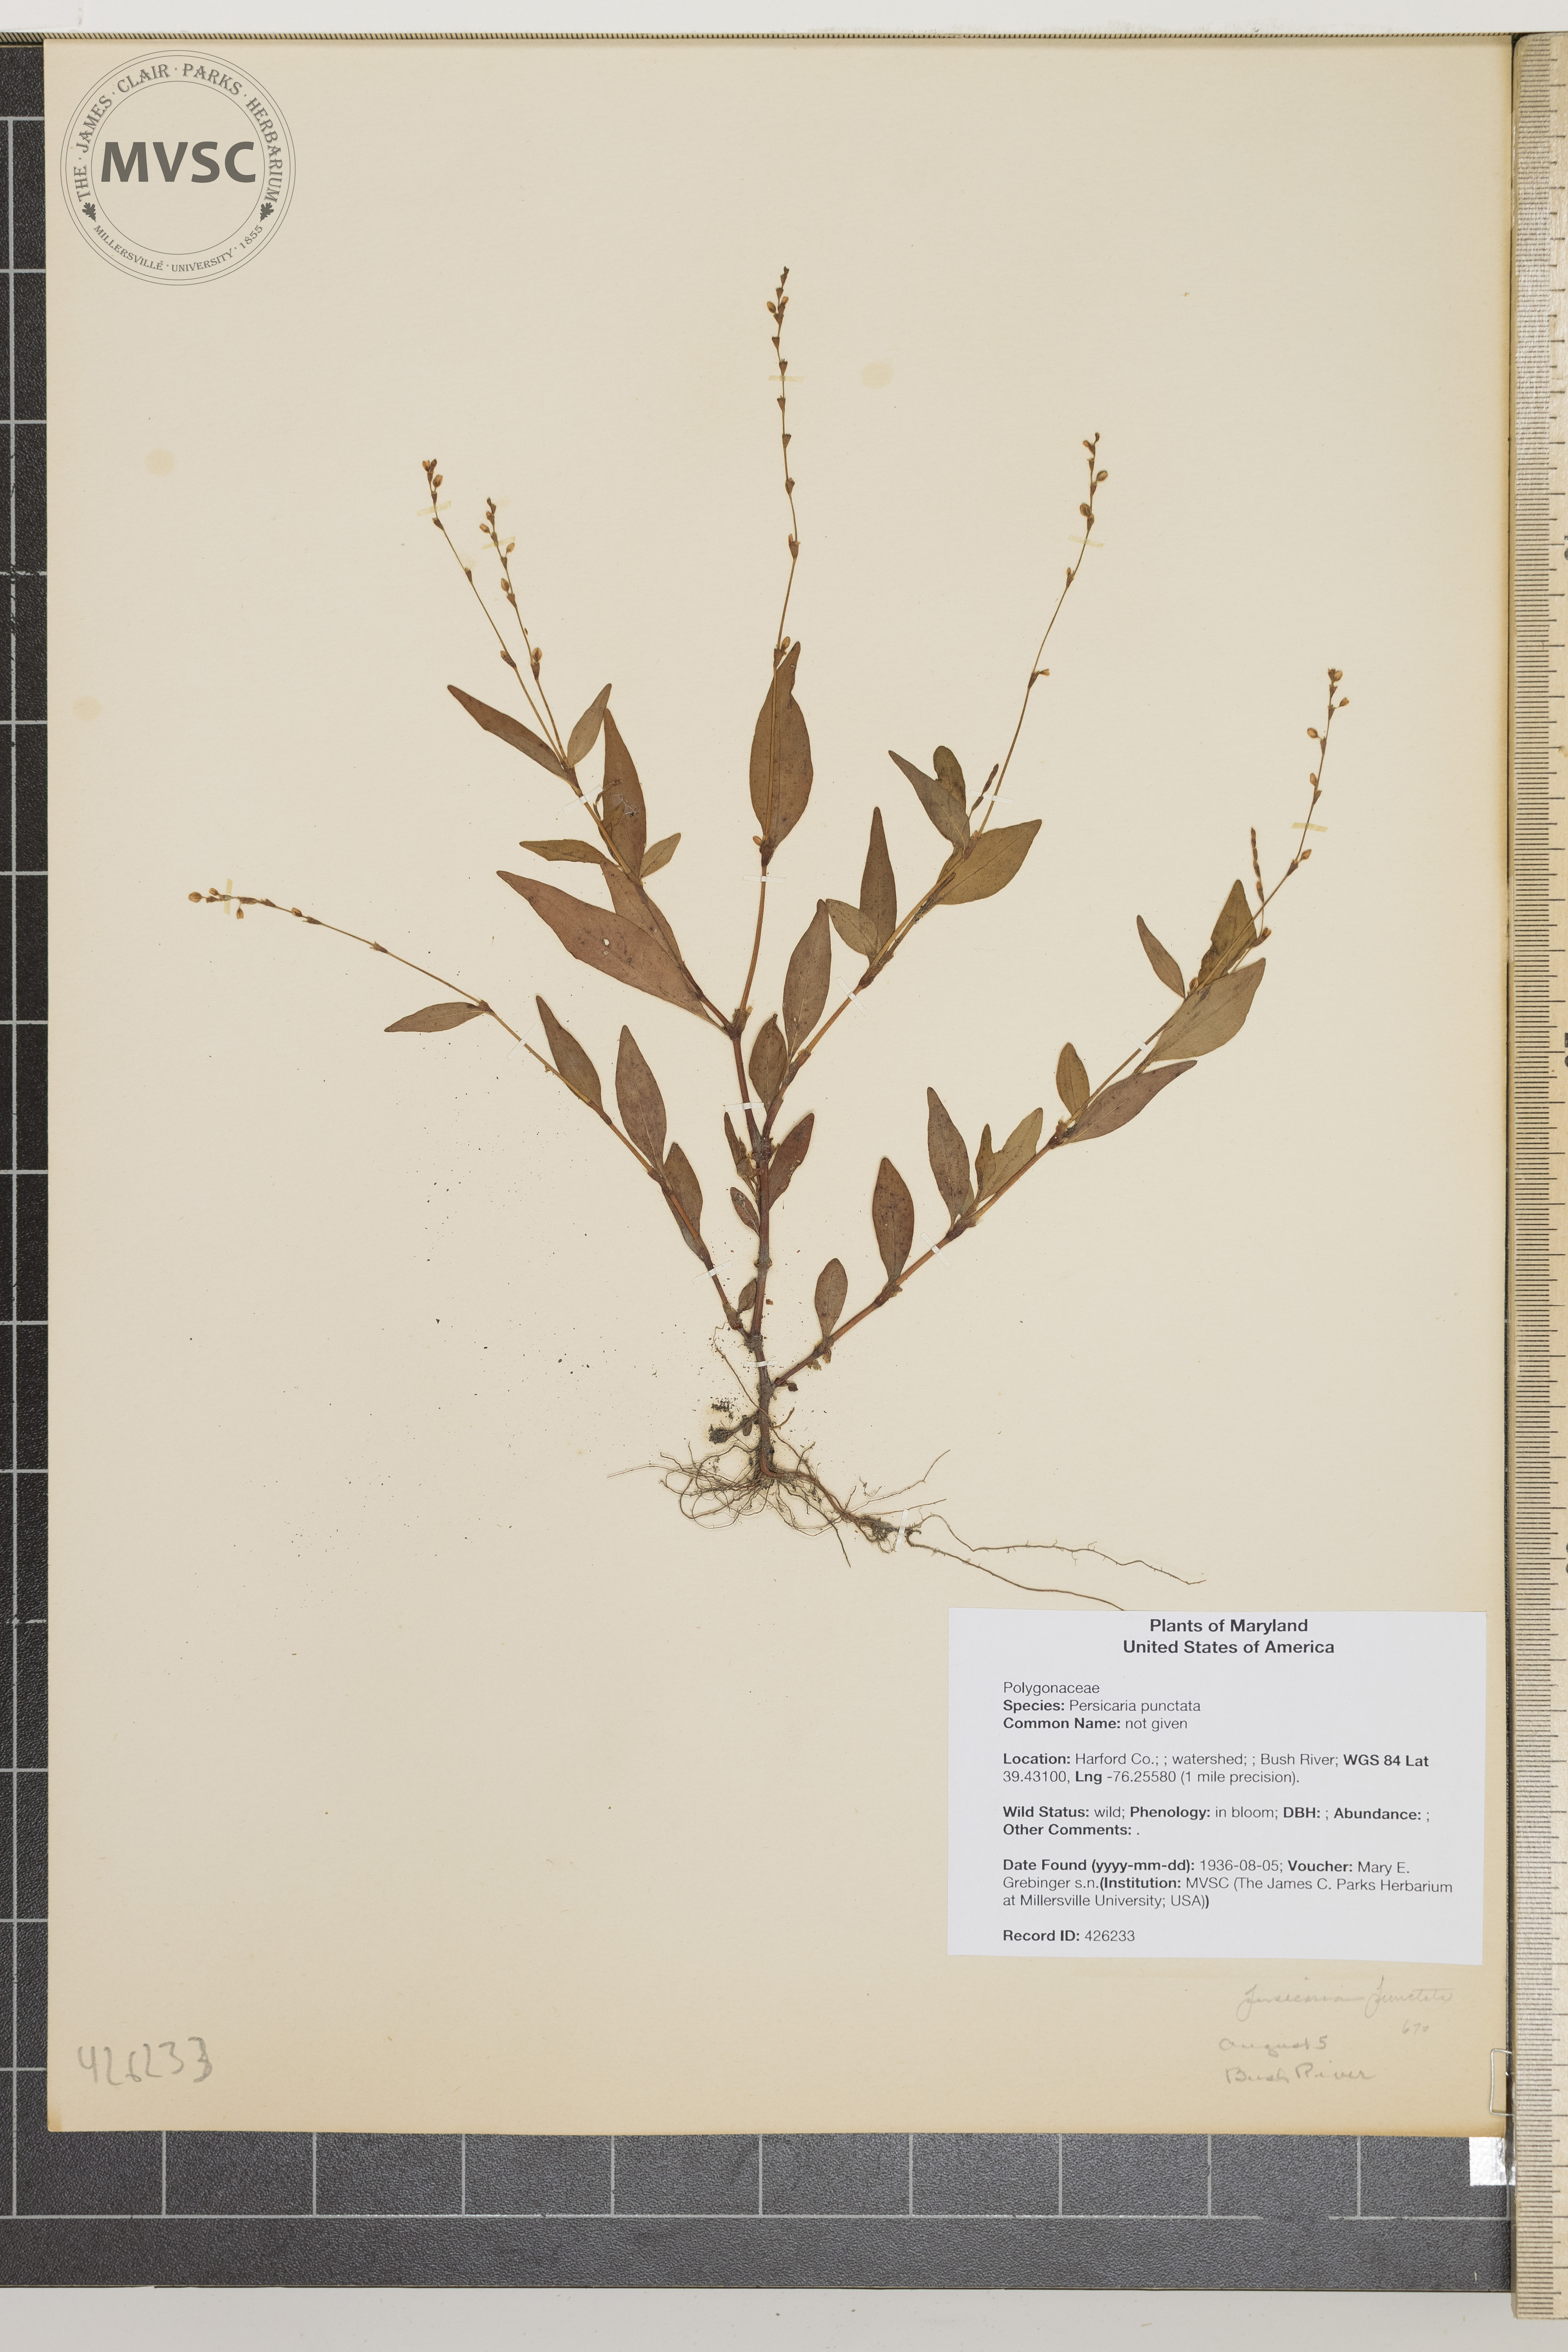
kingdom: Plantae
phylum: Tracheophyta
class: Magnoliopsida
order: Caryophyllales
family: Polygonaceae
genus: Persicaria
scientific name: Persicaria punctata
